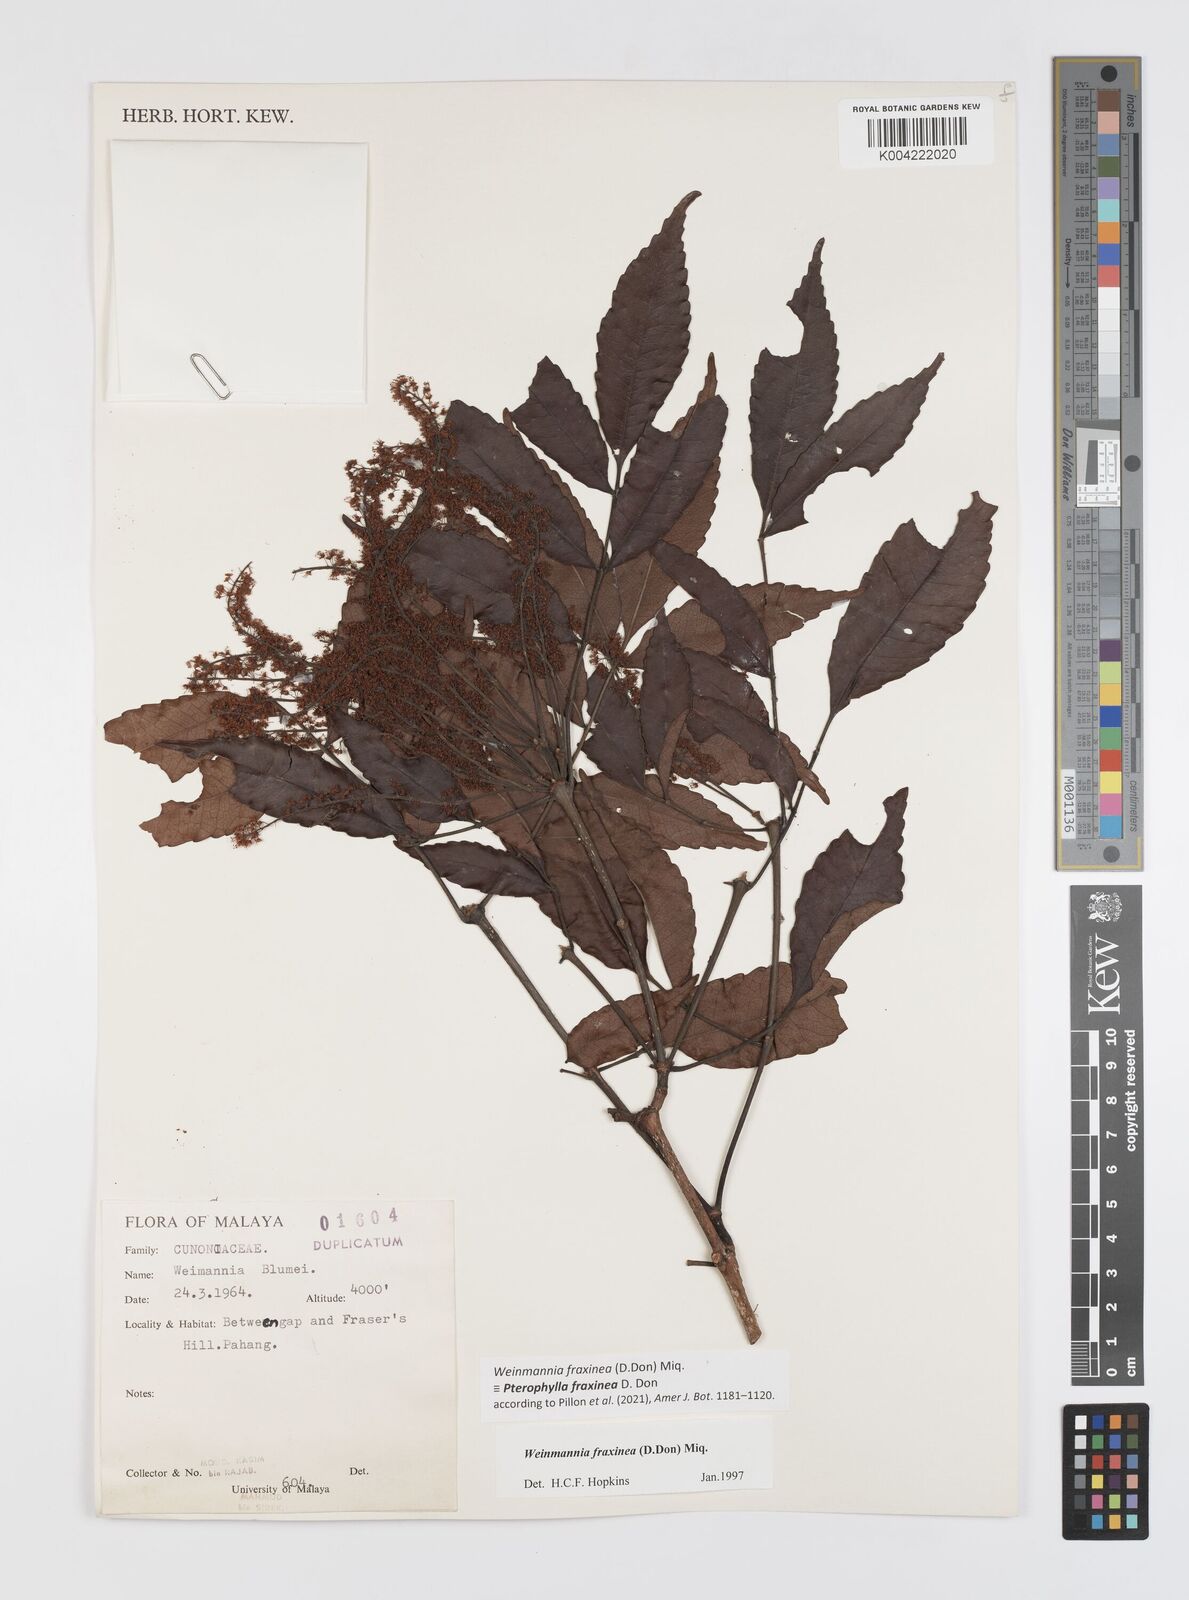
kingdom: Plantae
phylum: Tracheophyta
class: Magnoliopsida
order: Oxalidales
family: Cunoniaceae
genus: Pterophylla
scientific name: Pterophylla fraxinea
